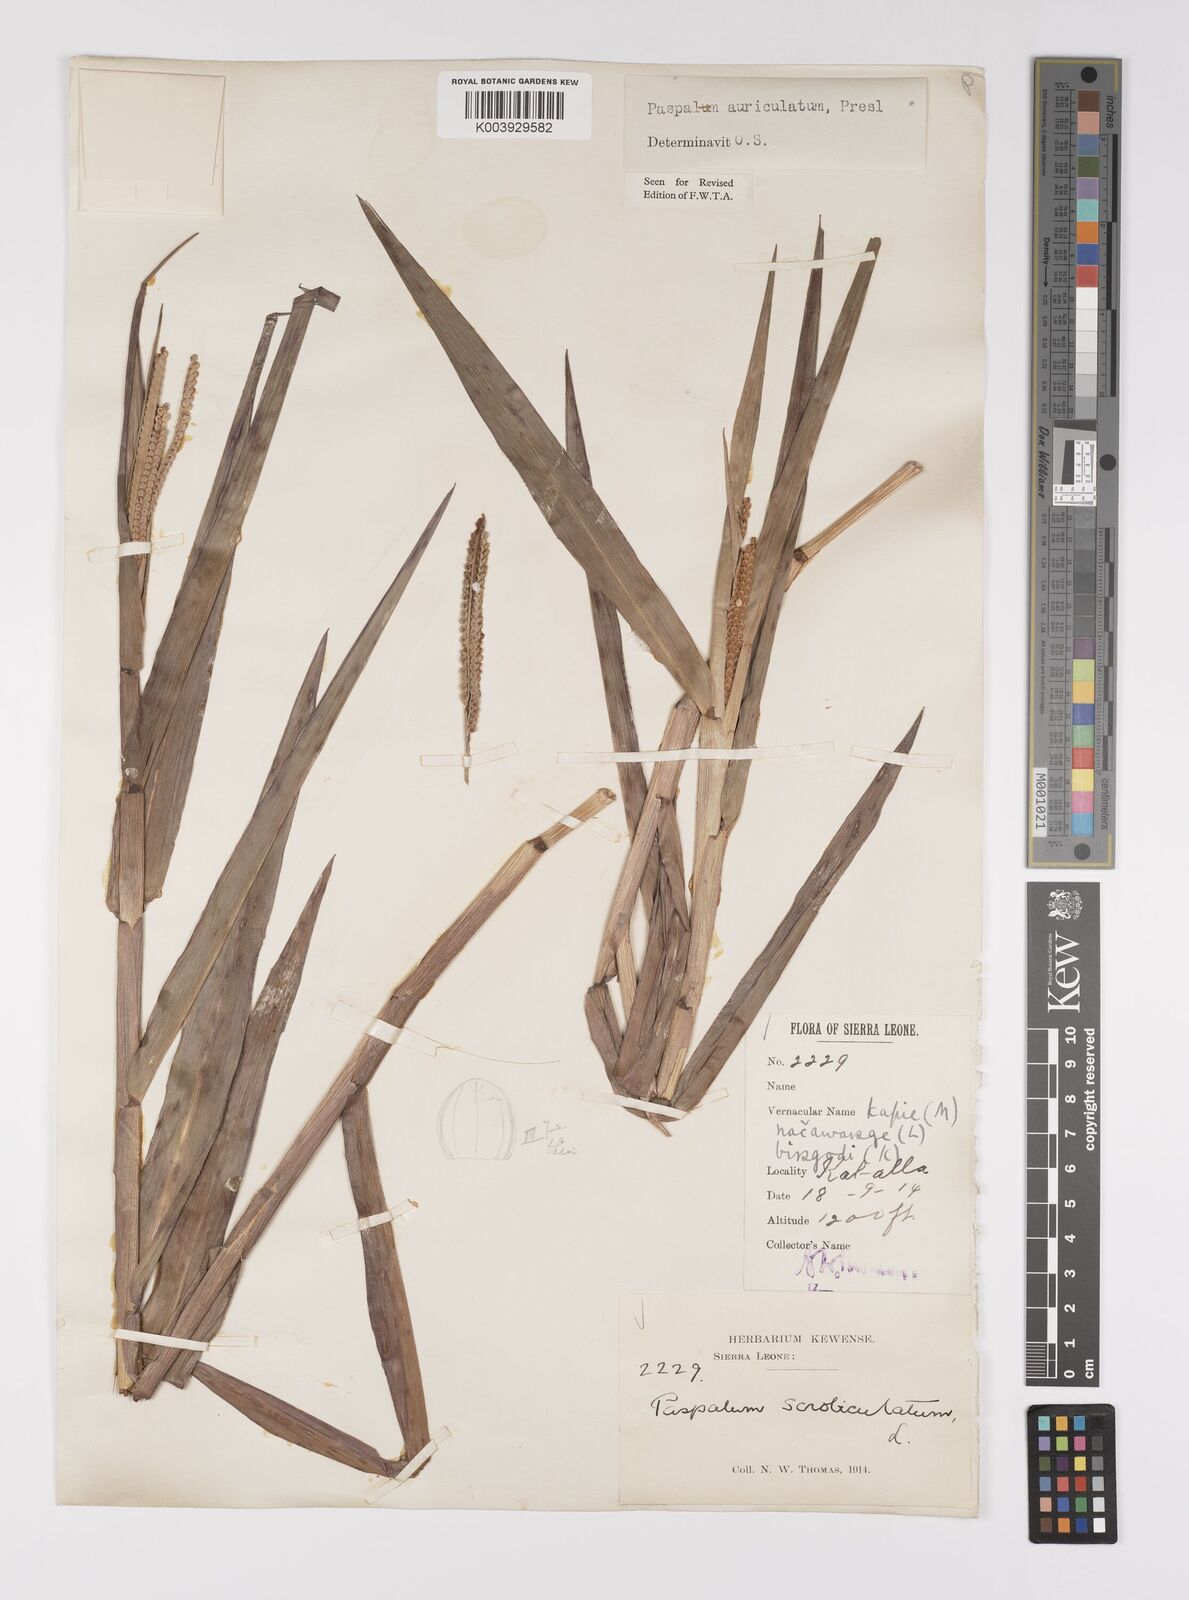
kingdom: Plantae
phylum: Tracheophyta
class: Liliopsida
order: Poales
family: Poaceae
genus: Paspalum
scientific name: Paspalum lamprocaryon
